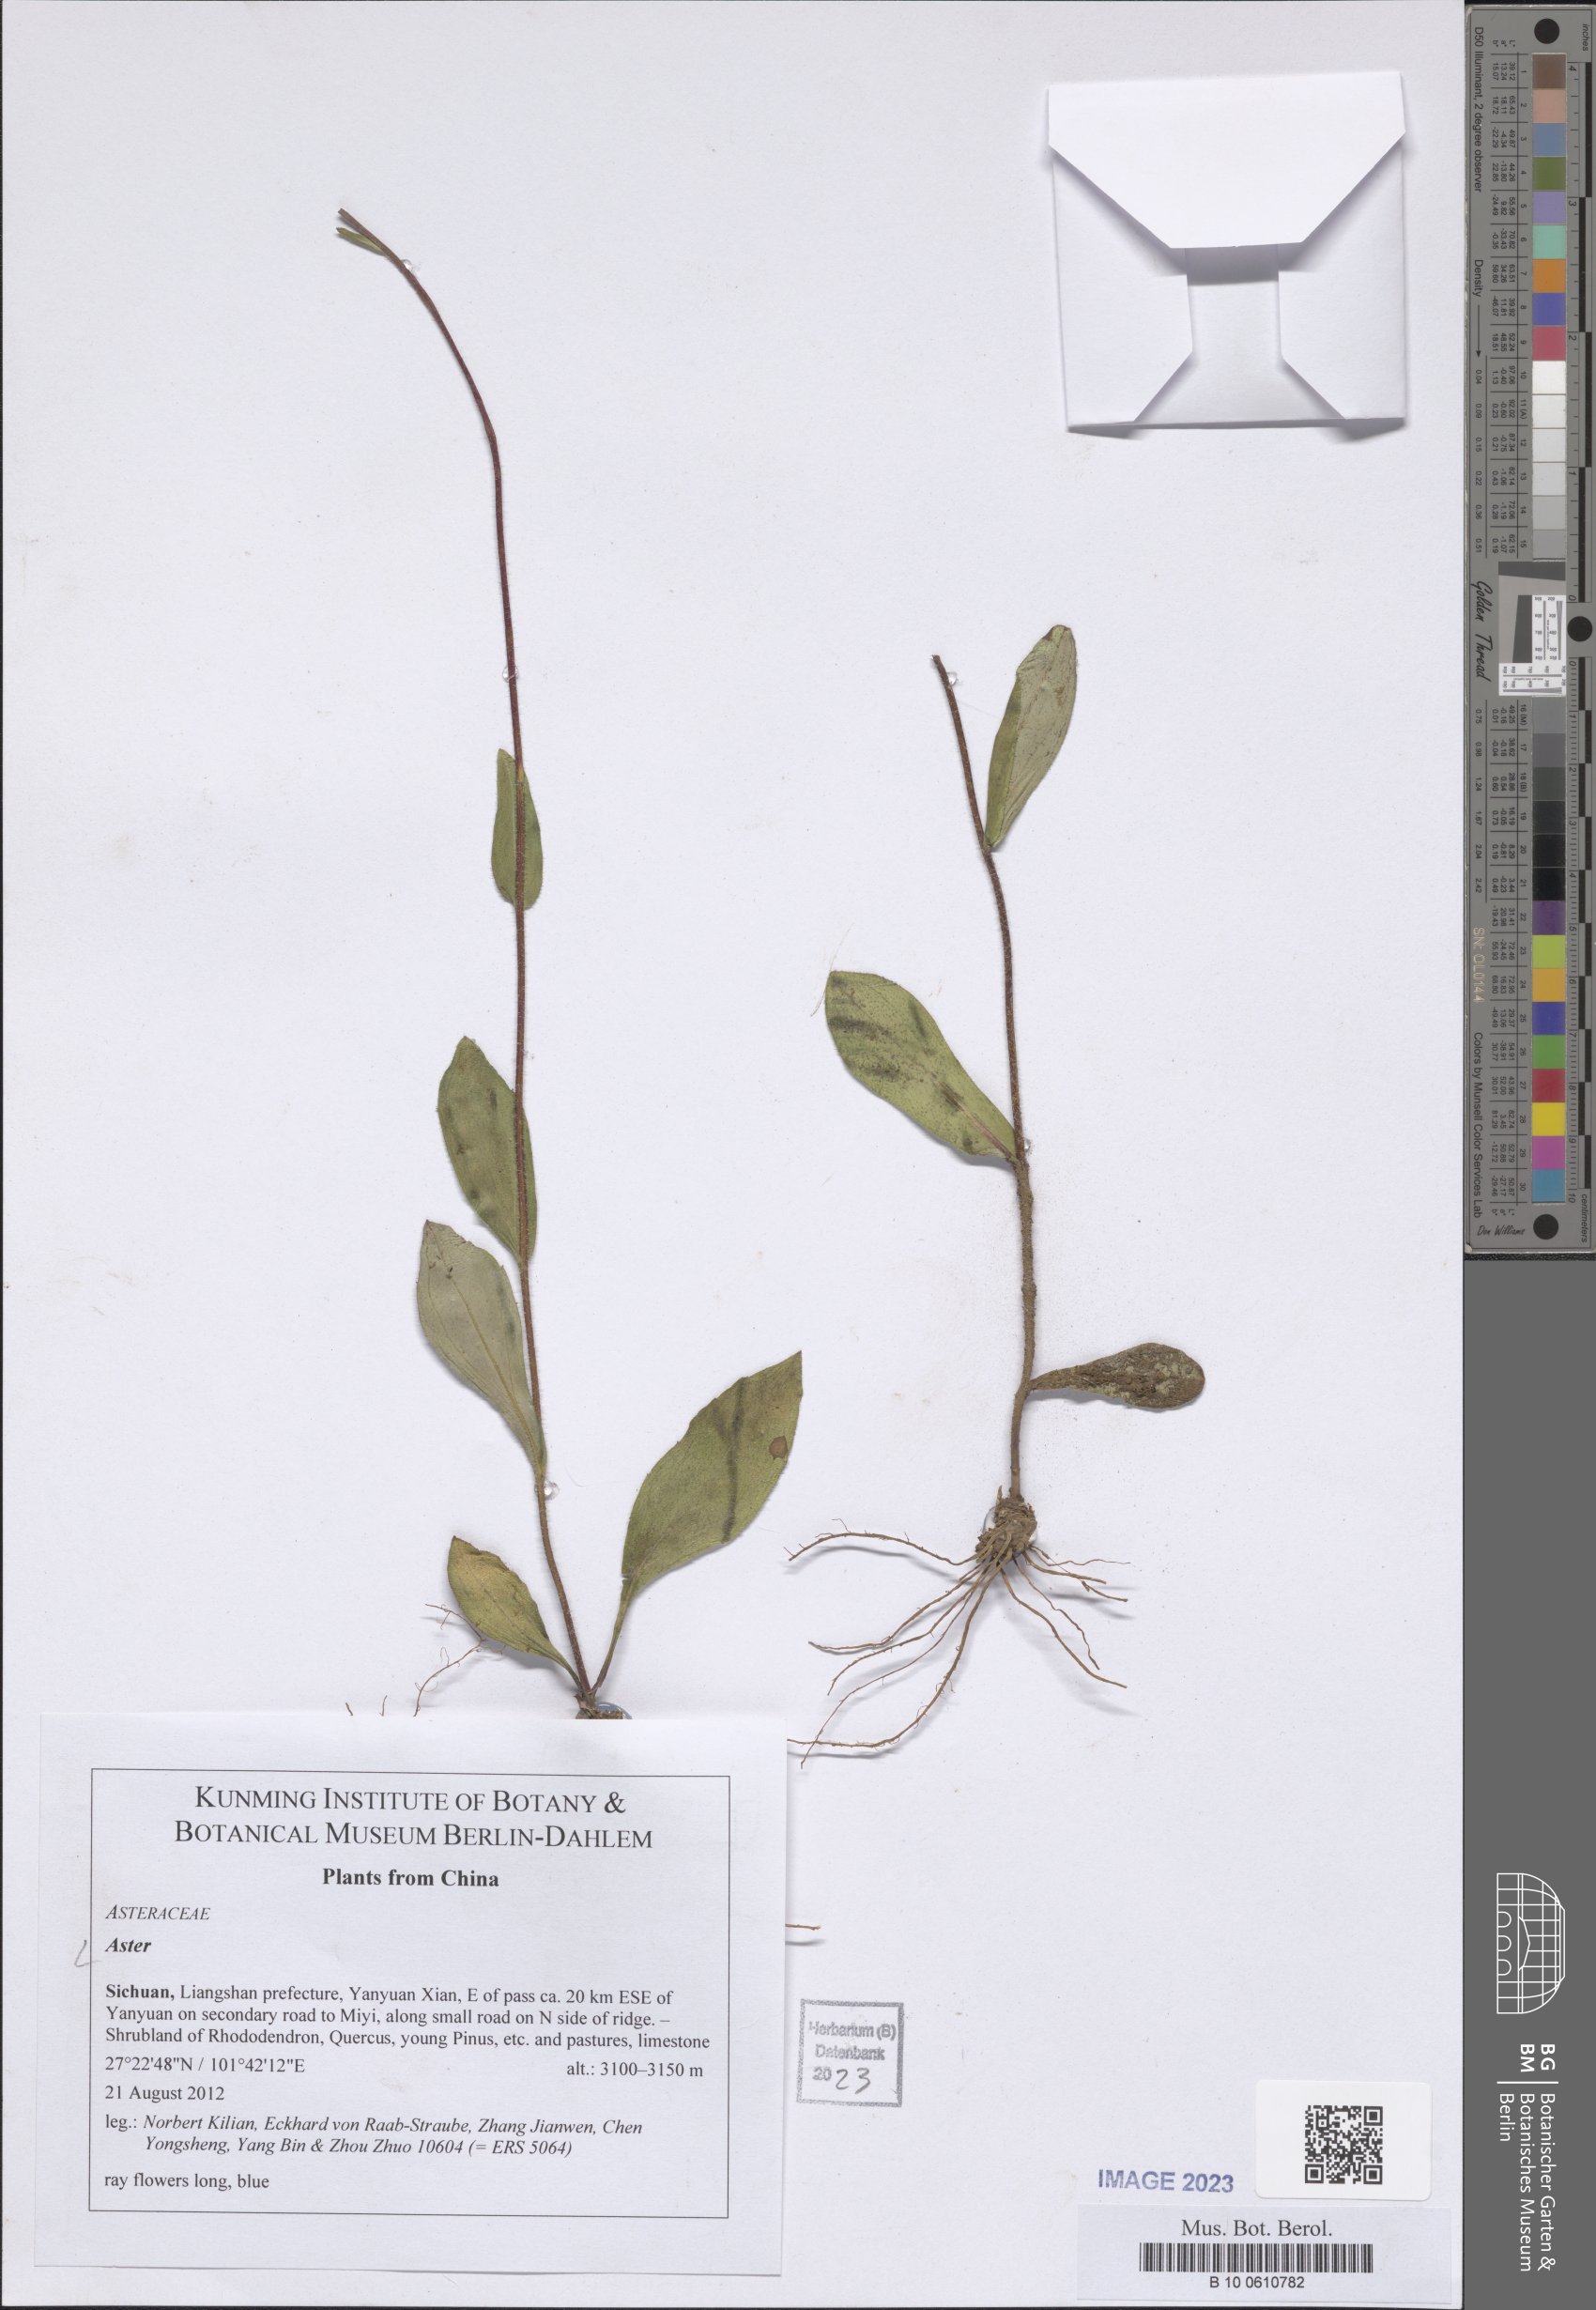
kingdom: Plantae
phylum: Tracheophyta
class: Magnoliopsida
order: Asterales
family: Asteraceae
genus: Aster
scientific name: Aster
